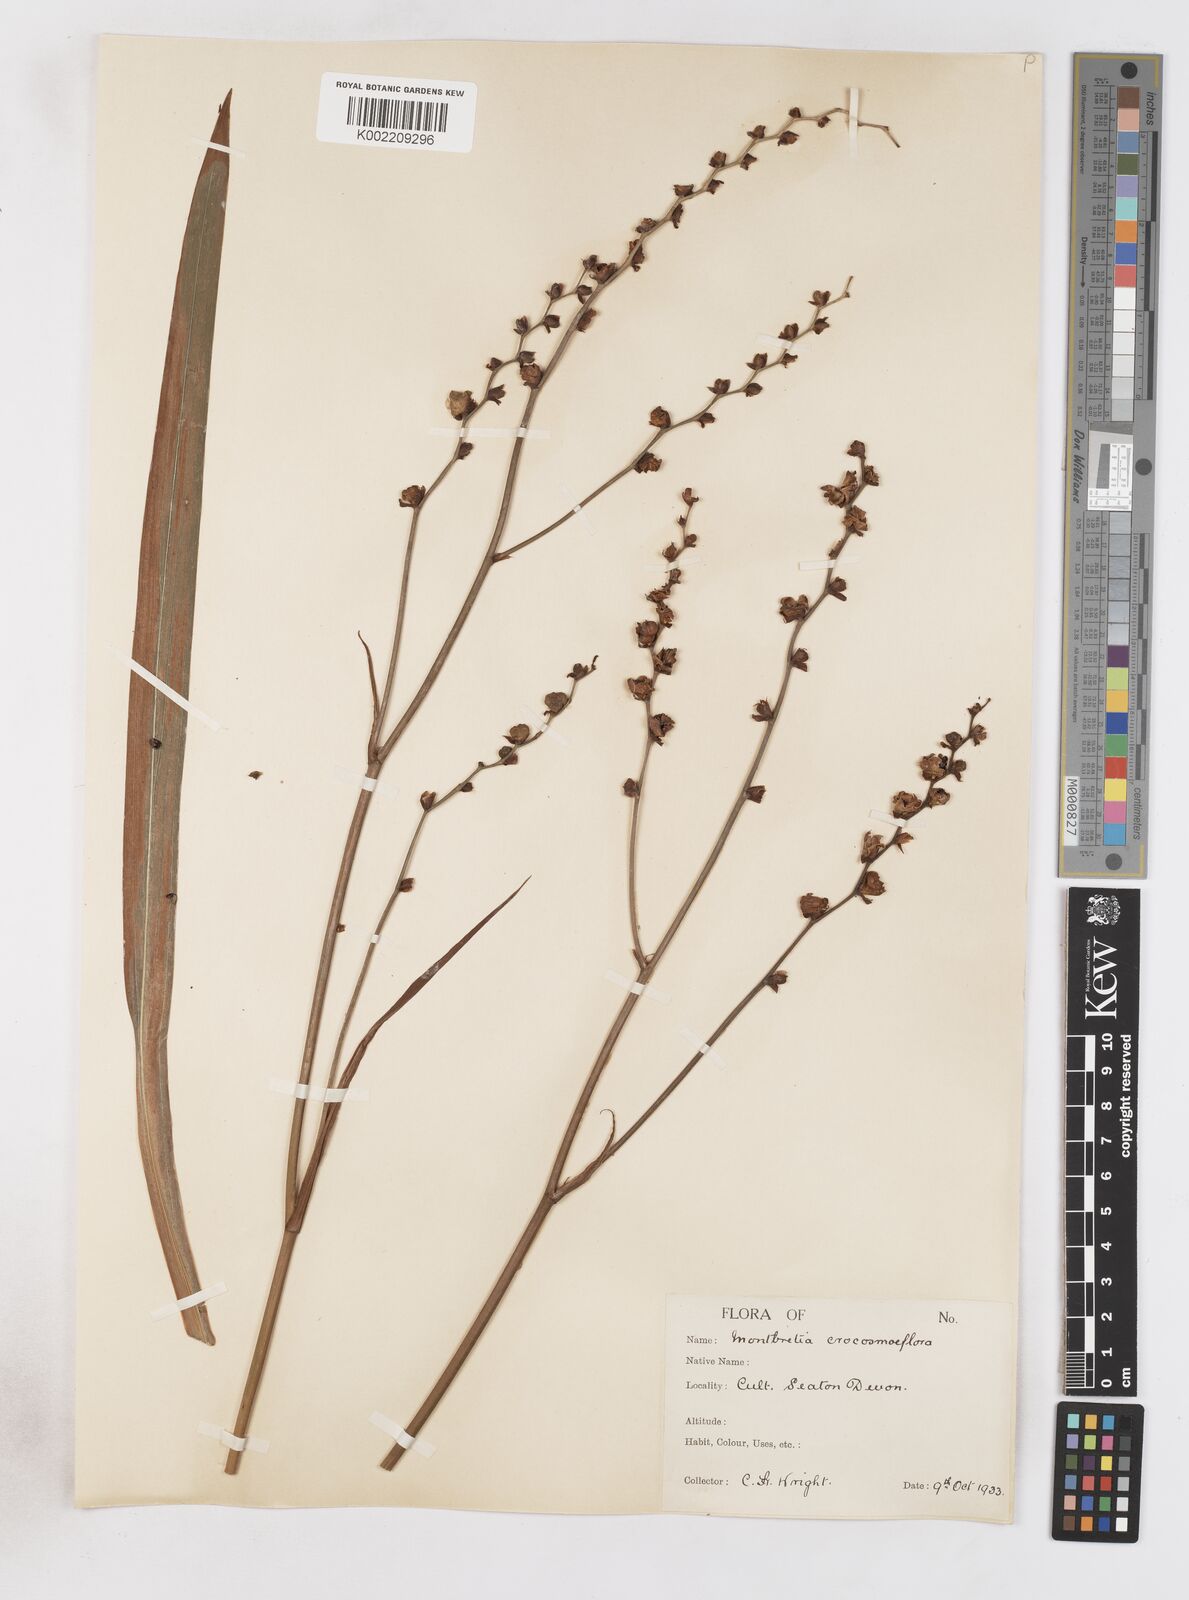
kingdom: Plantae
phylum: Tracheophyta
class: Liliopsida
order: Asparagales
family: Iridaceae
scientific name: Iridaceae
